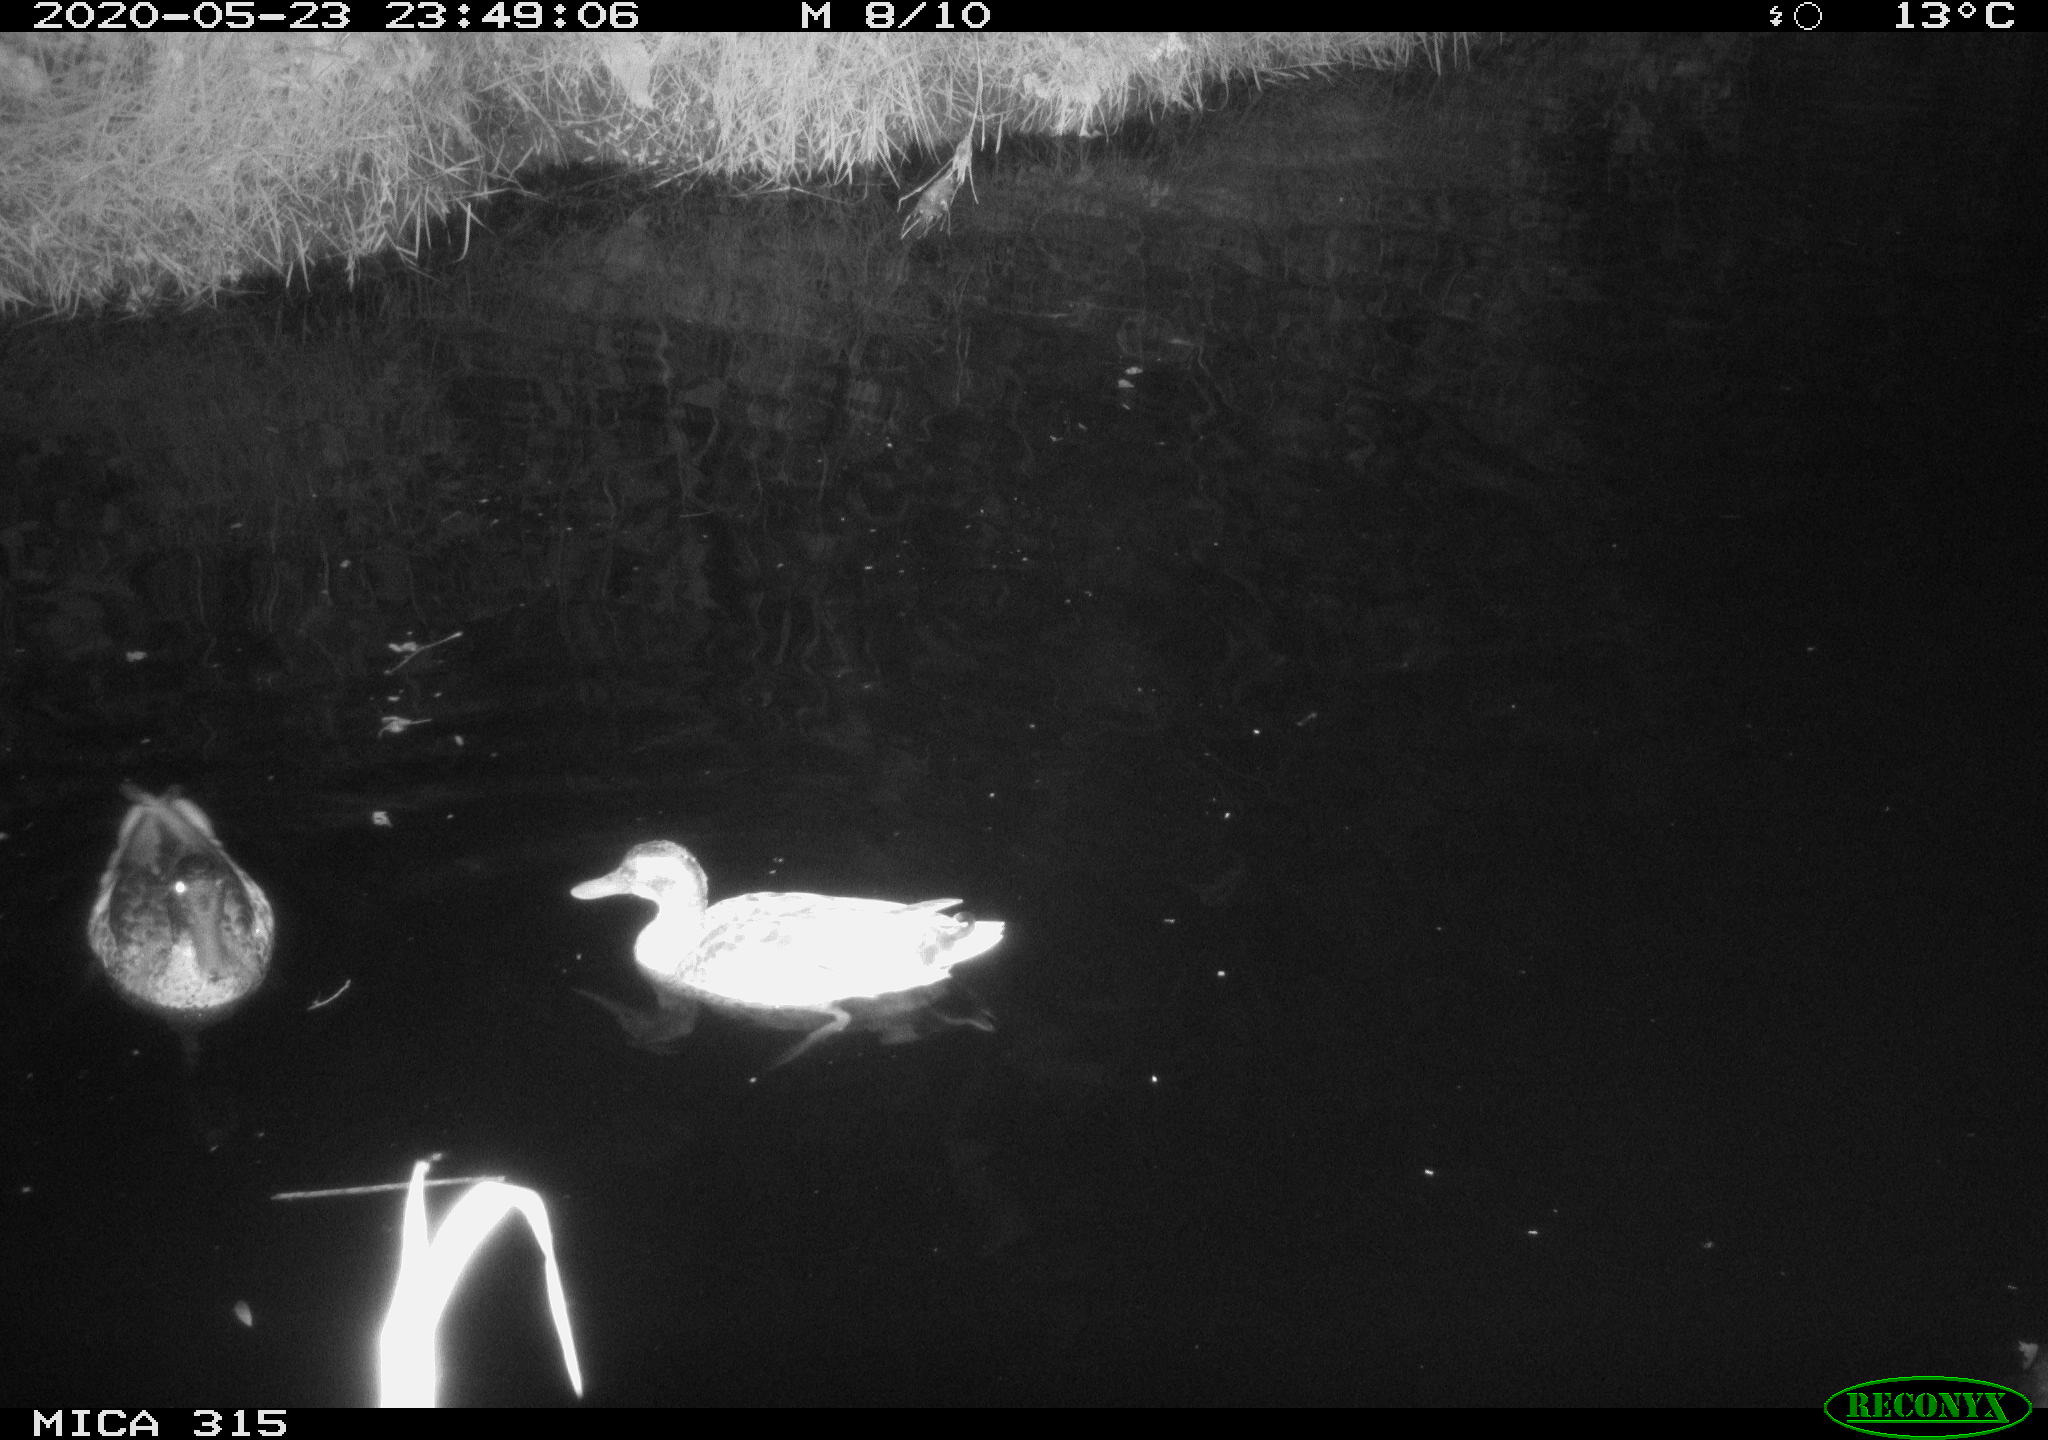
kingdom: Animalia
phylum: Chordata
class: Aves
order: Anseriformes
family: Anatidae
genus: Anas
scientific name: Anas platyrhynchos
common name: Mallard
